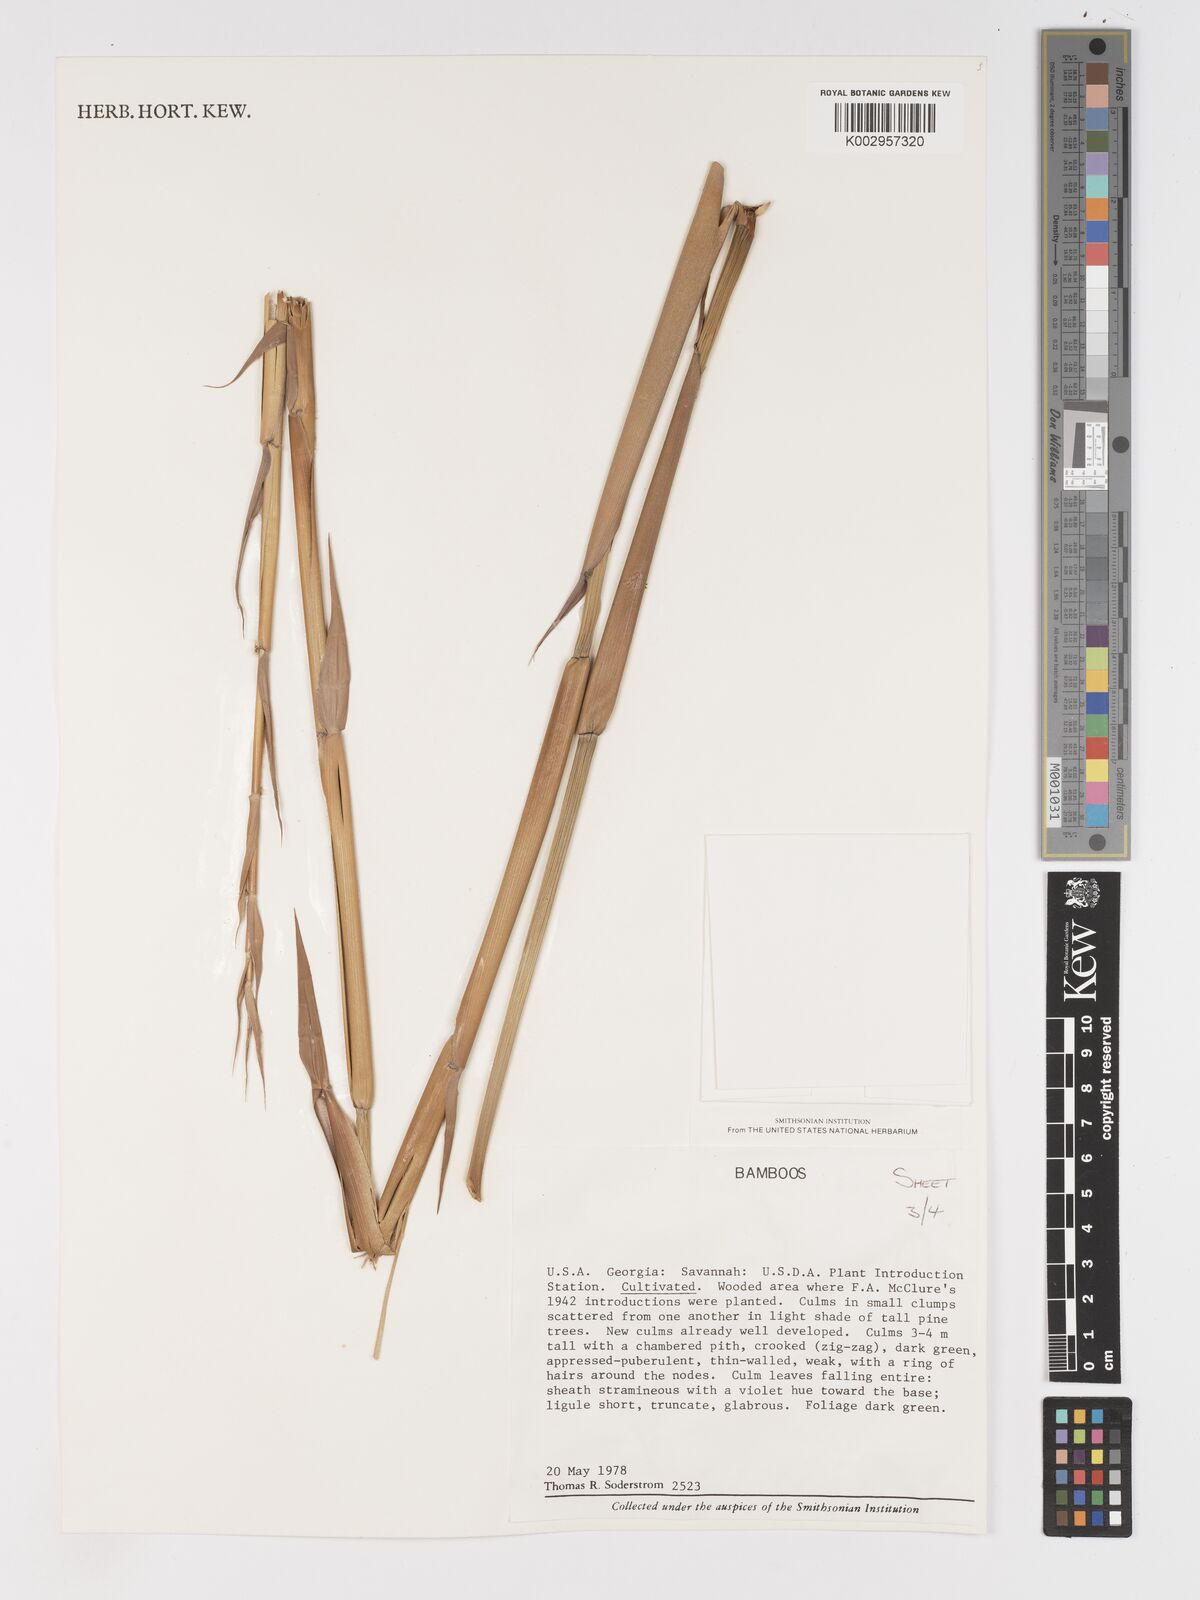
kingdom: Plantae
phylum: Tracheophyta
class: Liliopsida
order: Poales
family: Poaceae
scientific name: Poaceae
